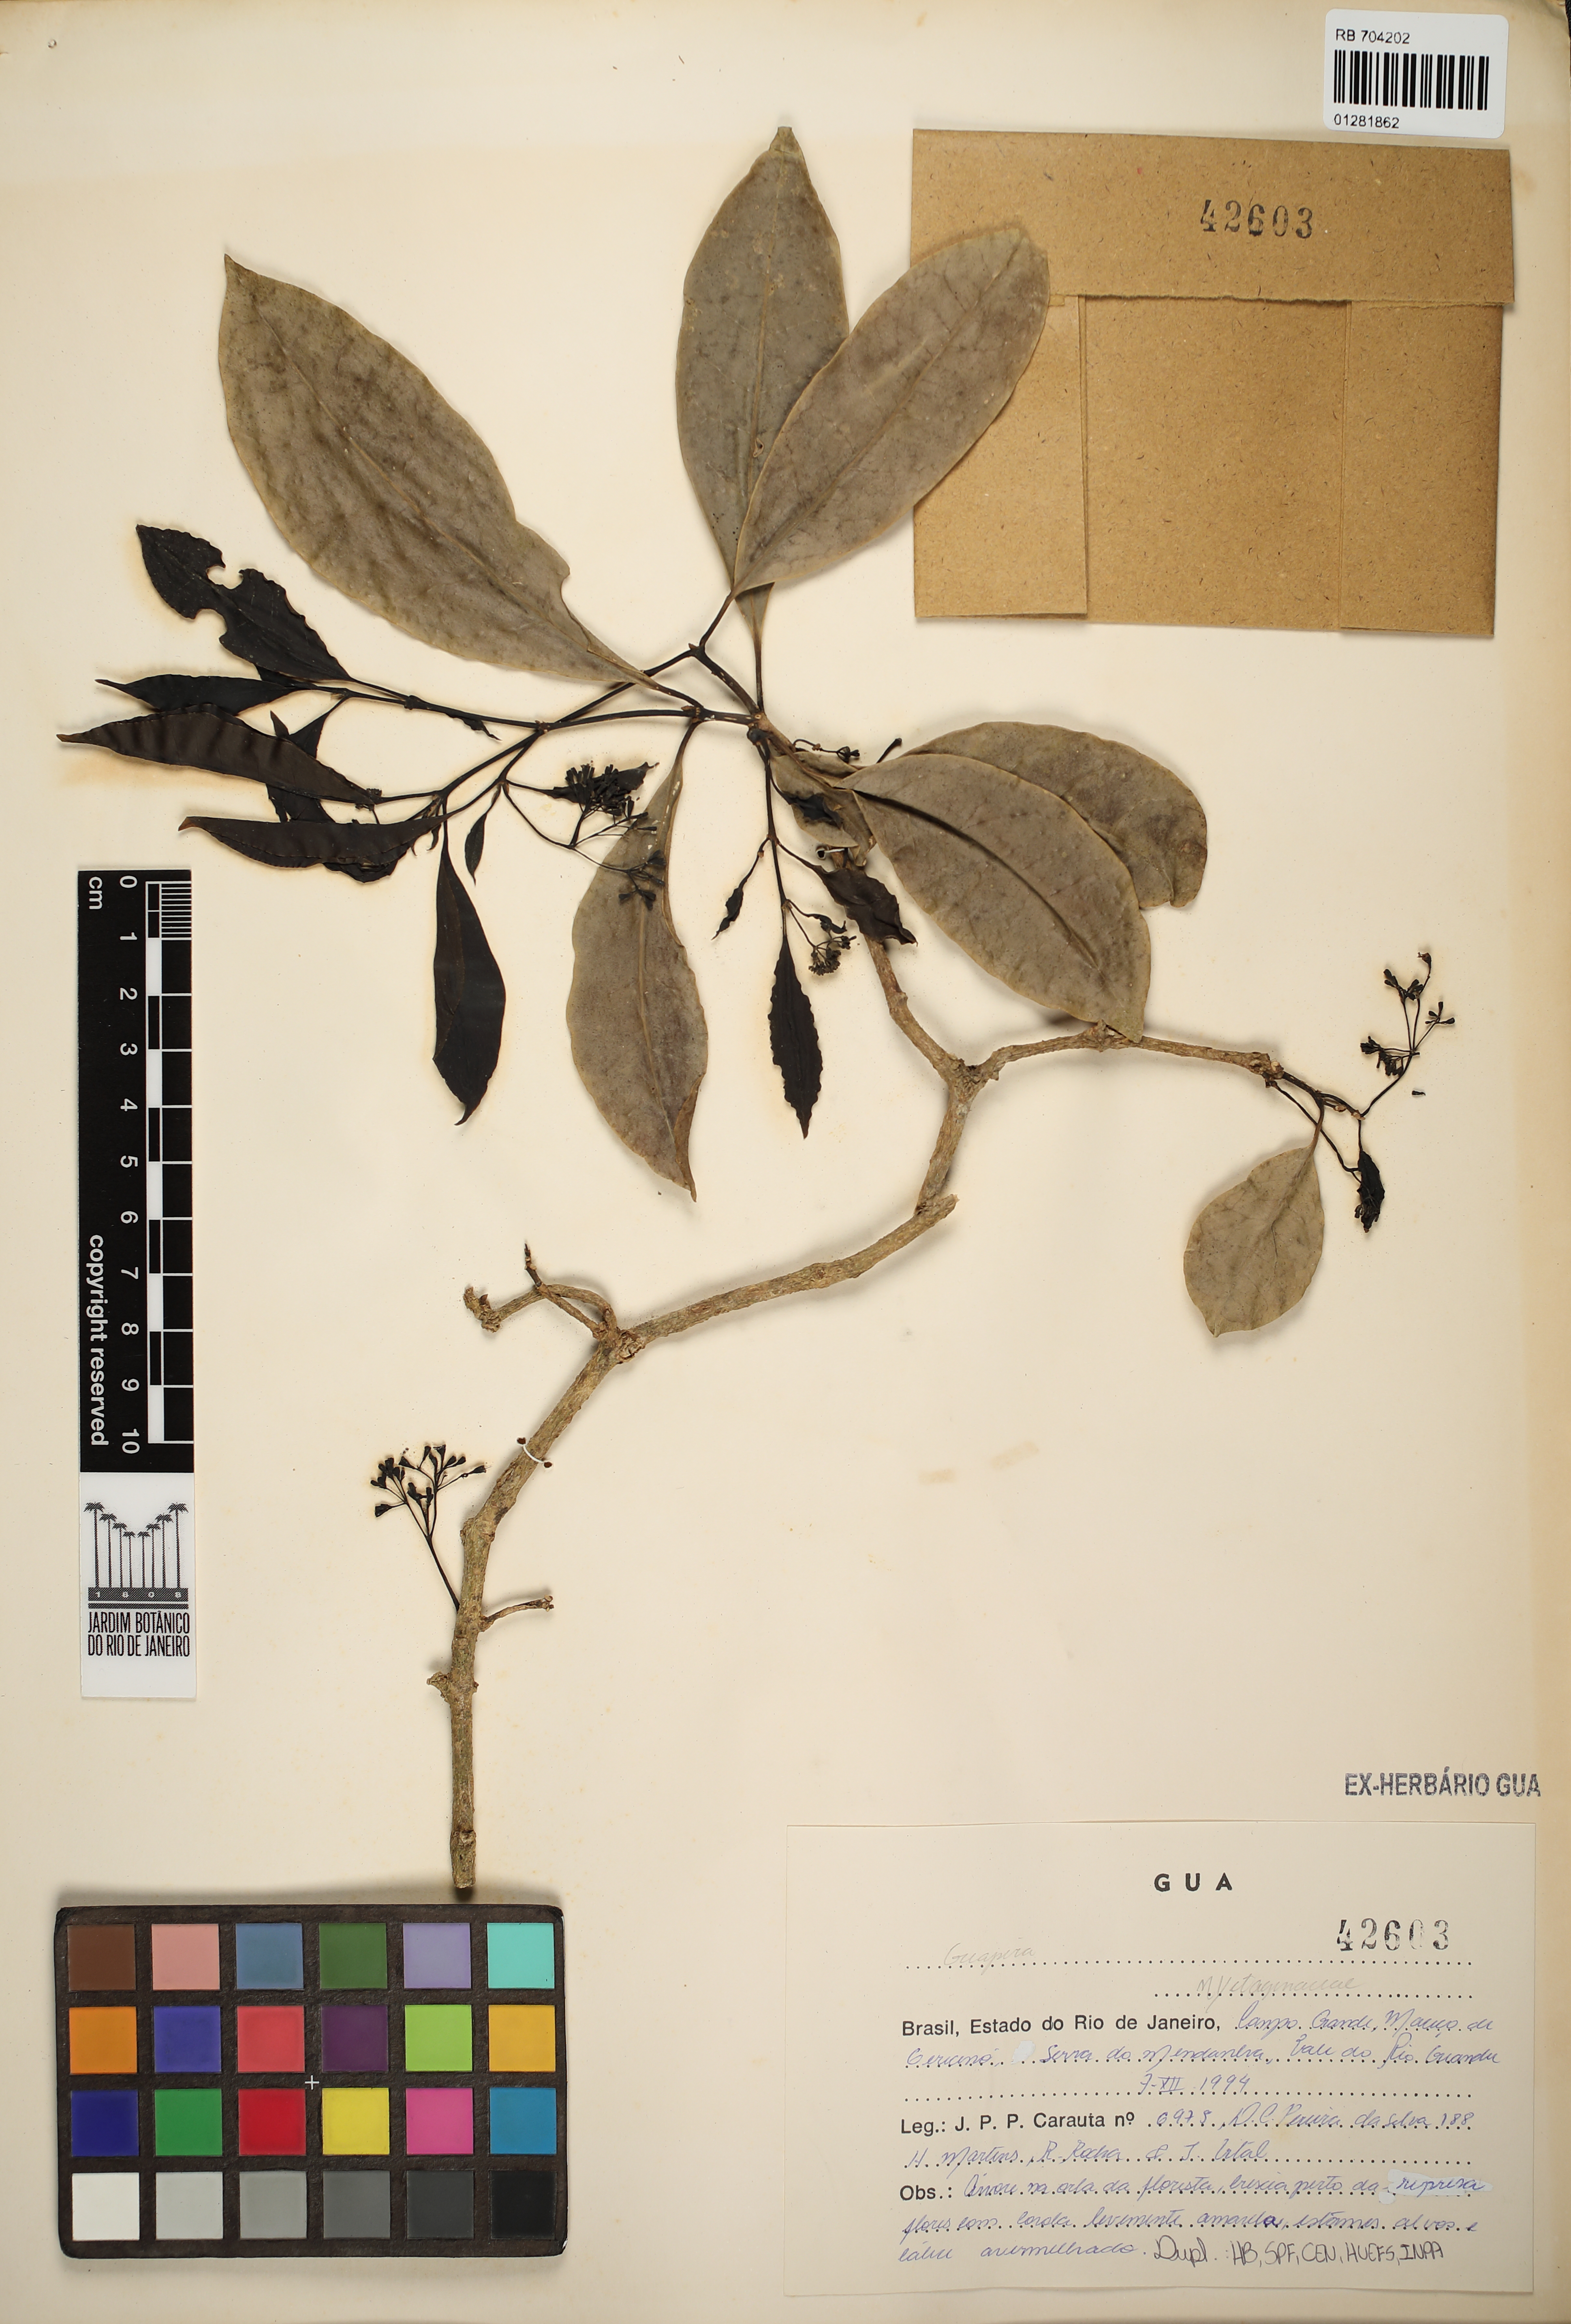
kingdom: Plantae
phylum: Tracheophyta
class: Magnoliopsida
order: Caryophyllales
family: Nyctaginaceae
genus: Guapira
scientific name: Guapira
